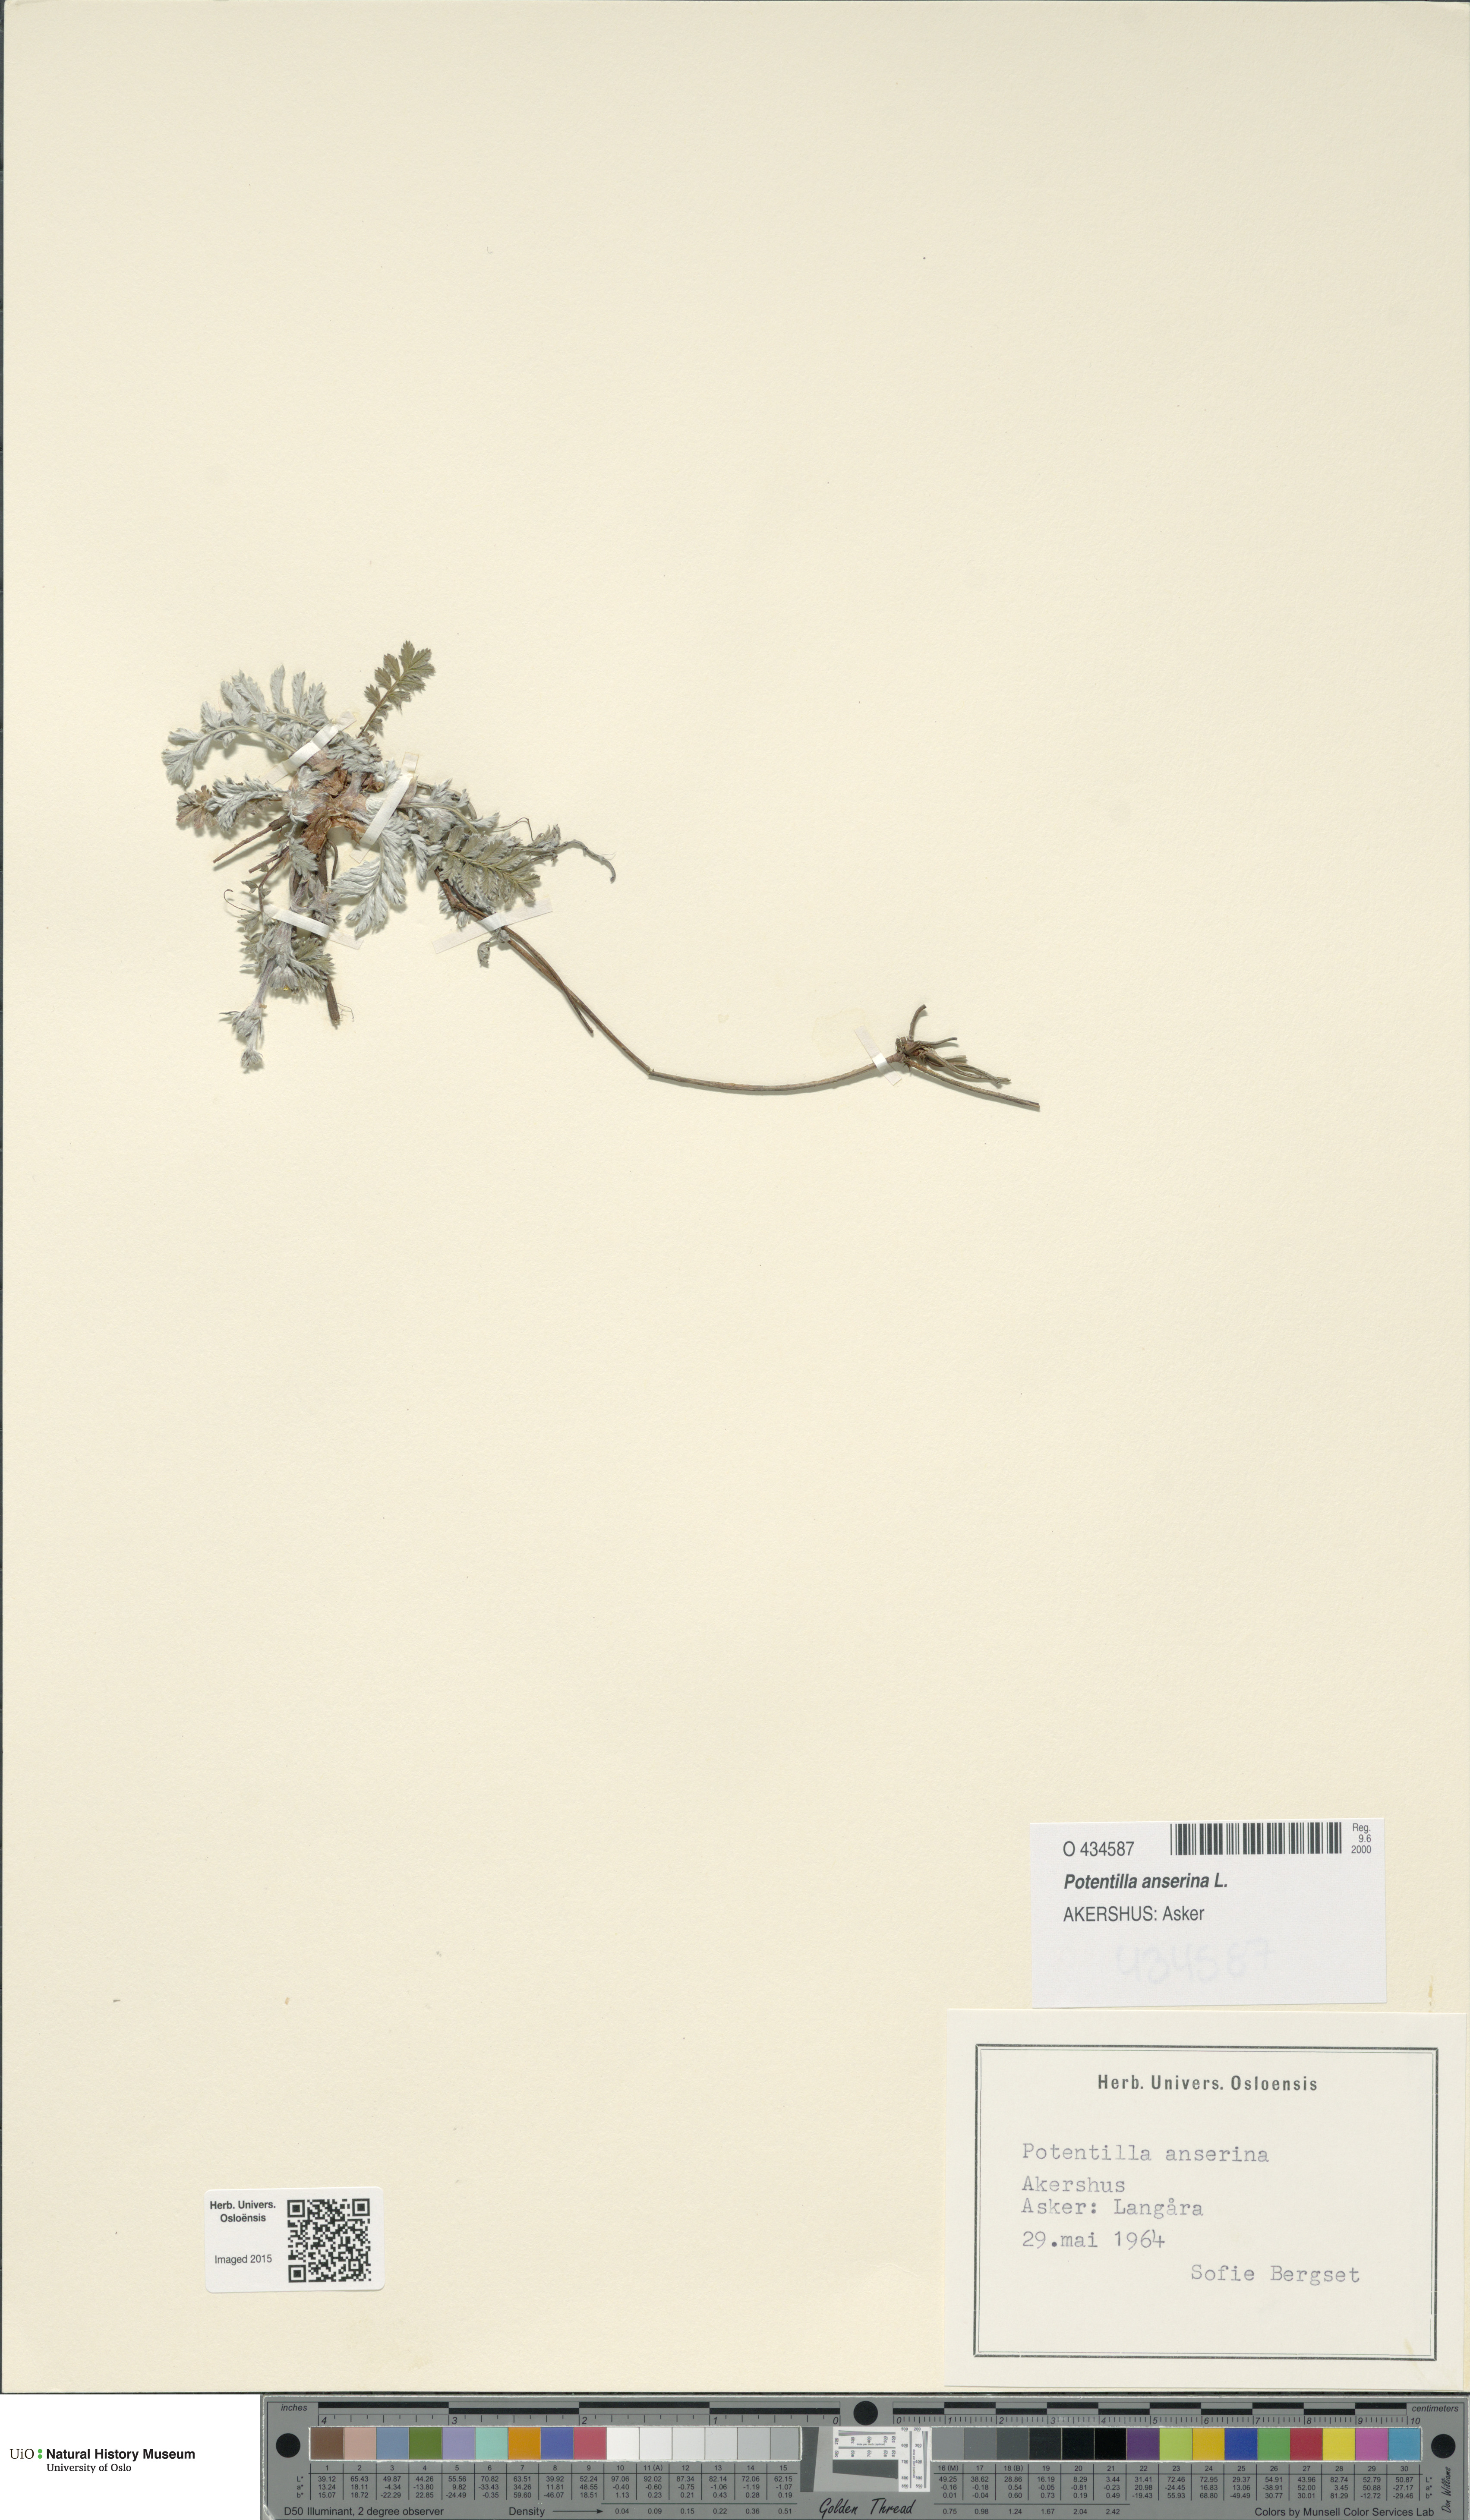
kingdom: Plantae
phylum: Tracheophyta
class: Magnoliopsida
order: Rosales
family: Rosaceae
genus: Argentina
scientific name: Argentina anserina
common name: Common silverweed
